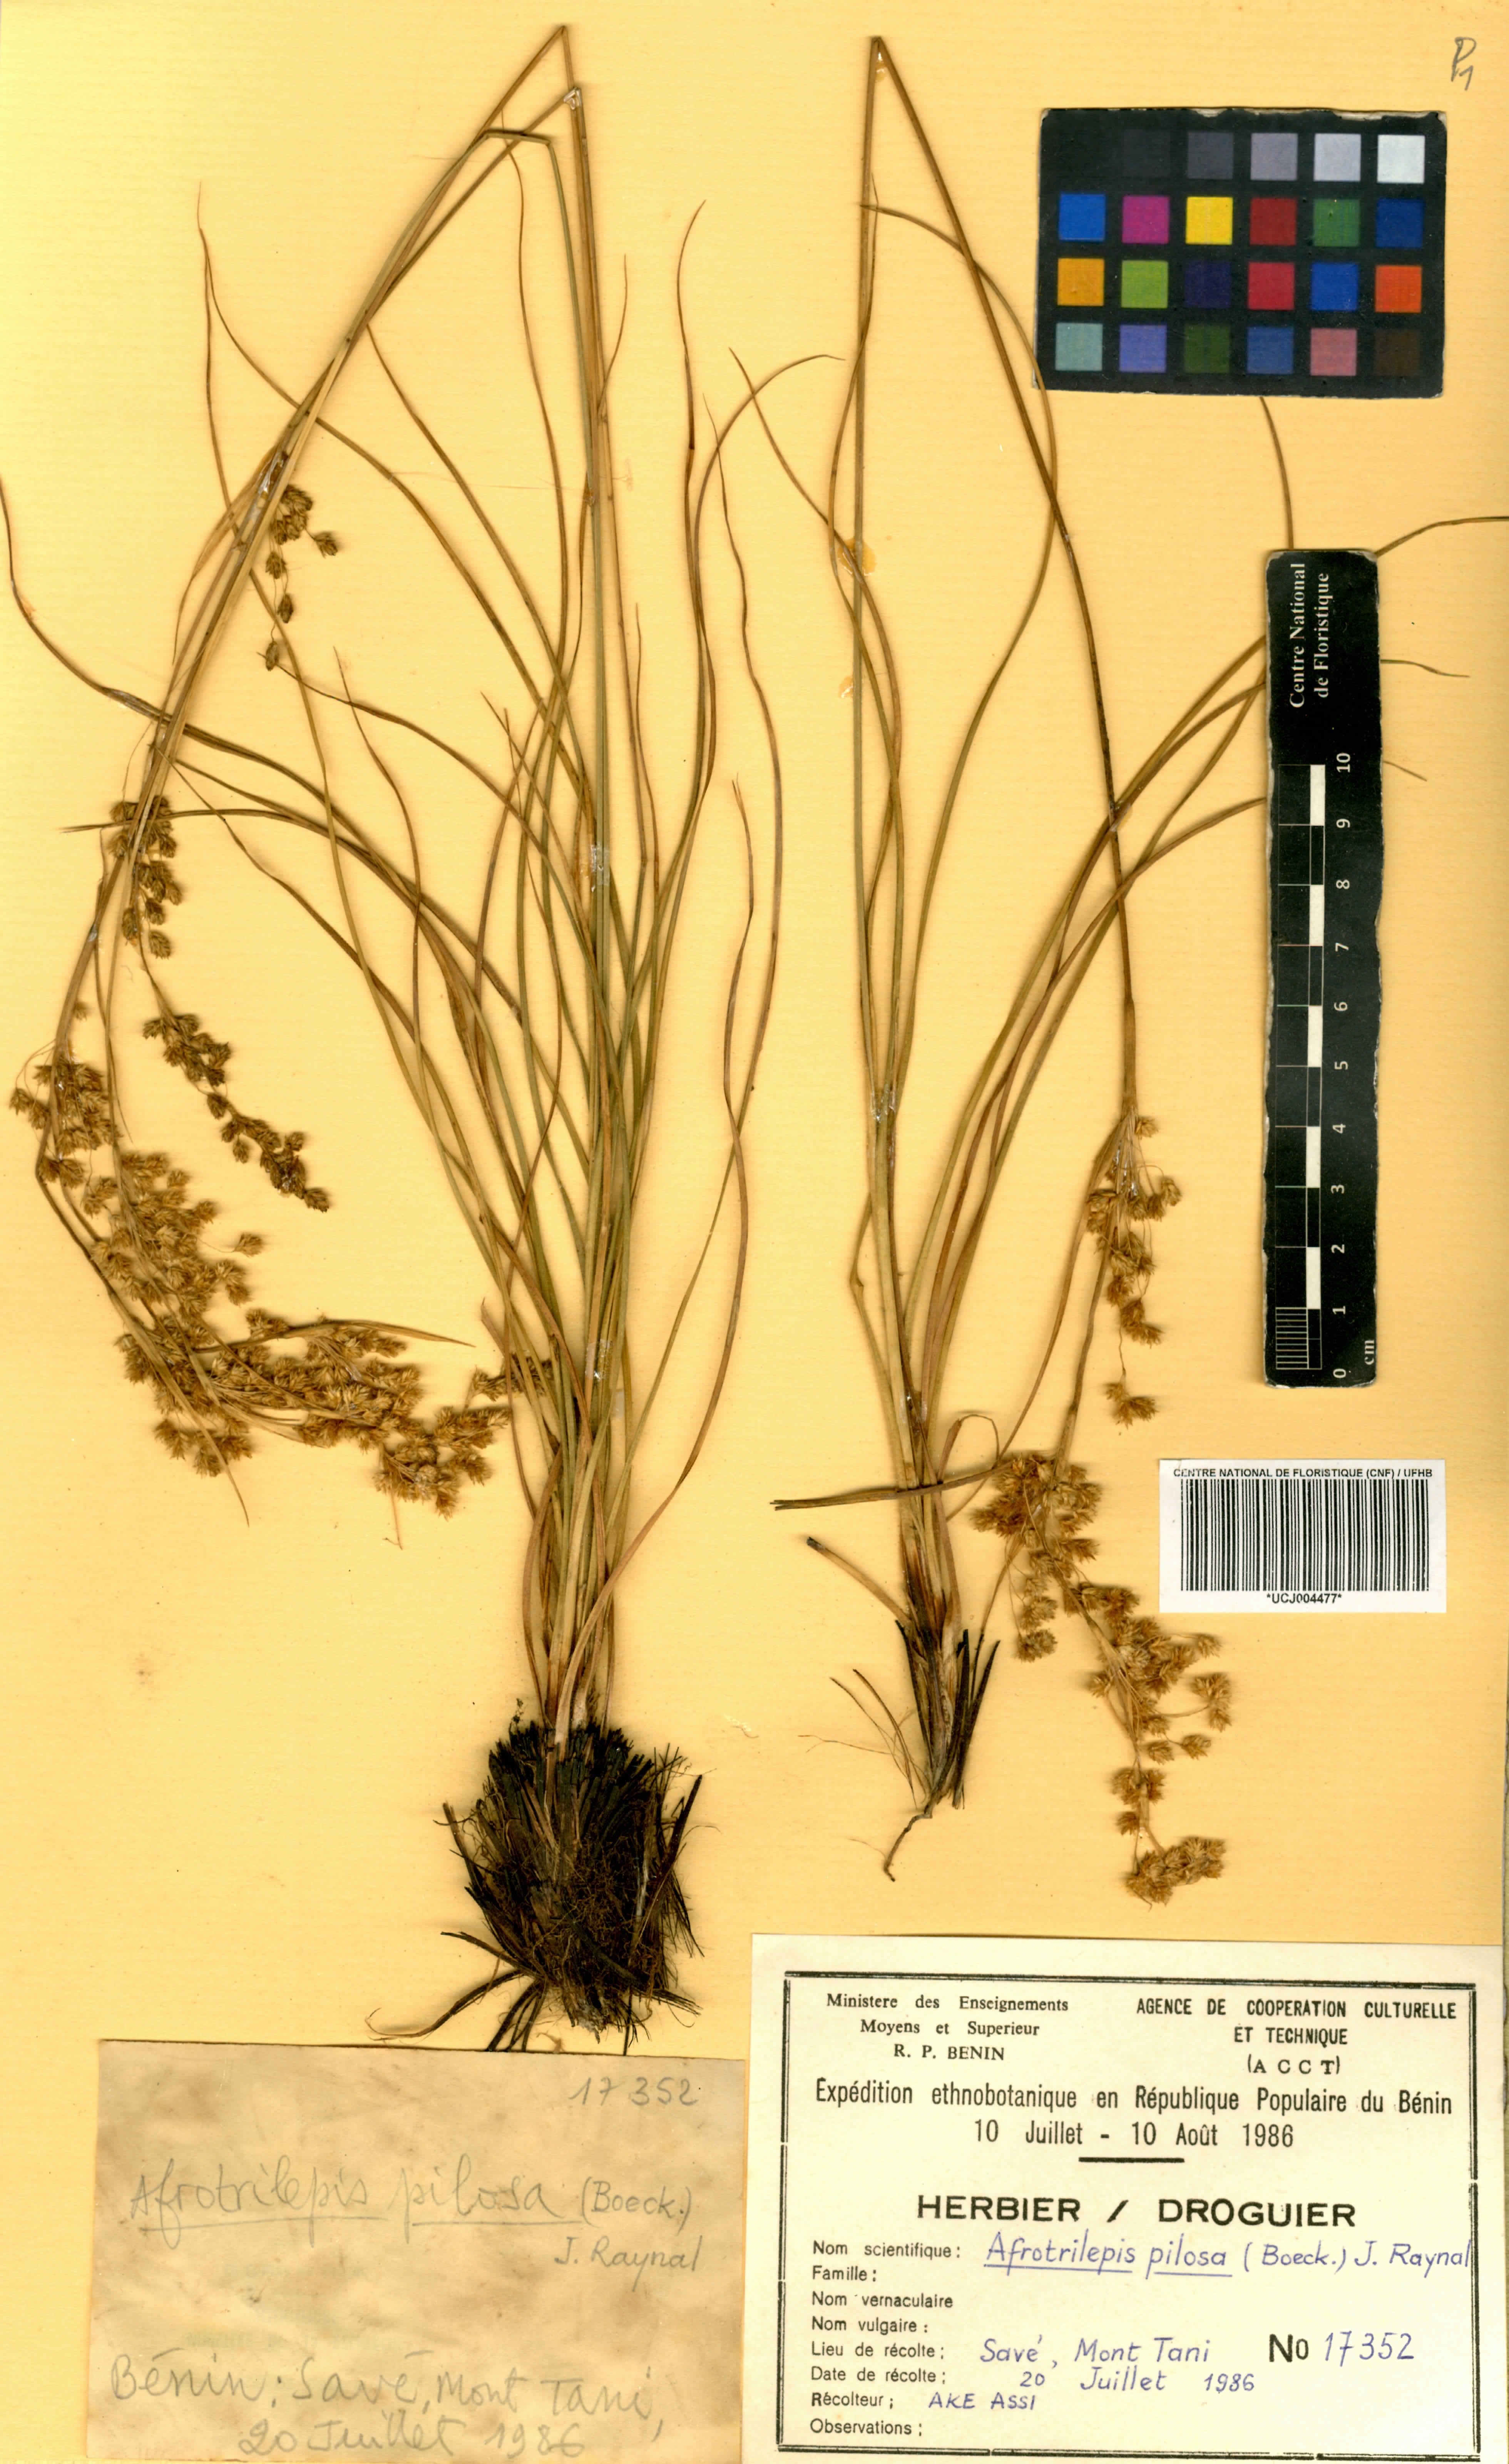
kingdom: Plantae
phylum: Tracheophyta
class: Liliopsida
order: Poales
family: Cyperaceae
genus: Afrotrilepis
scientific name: Afrotrilepis pilosa
